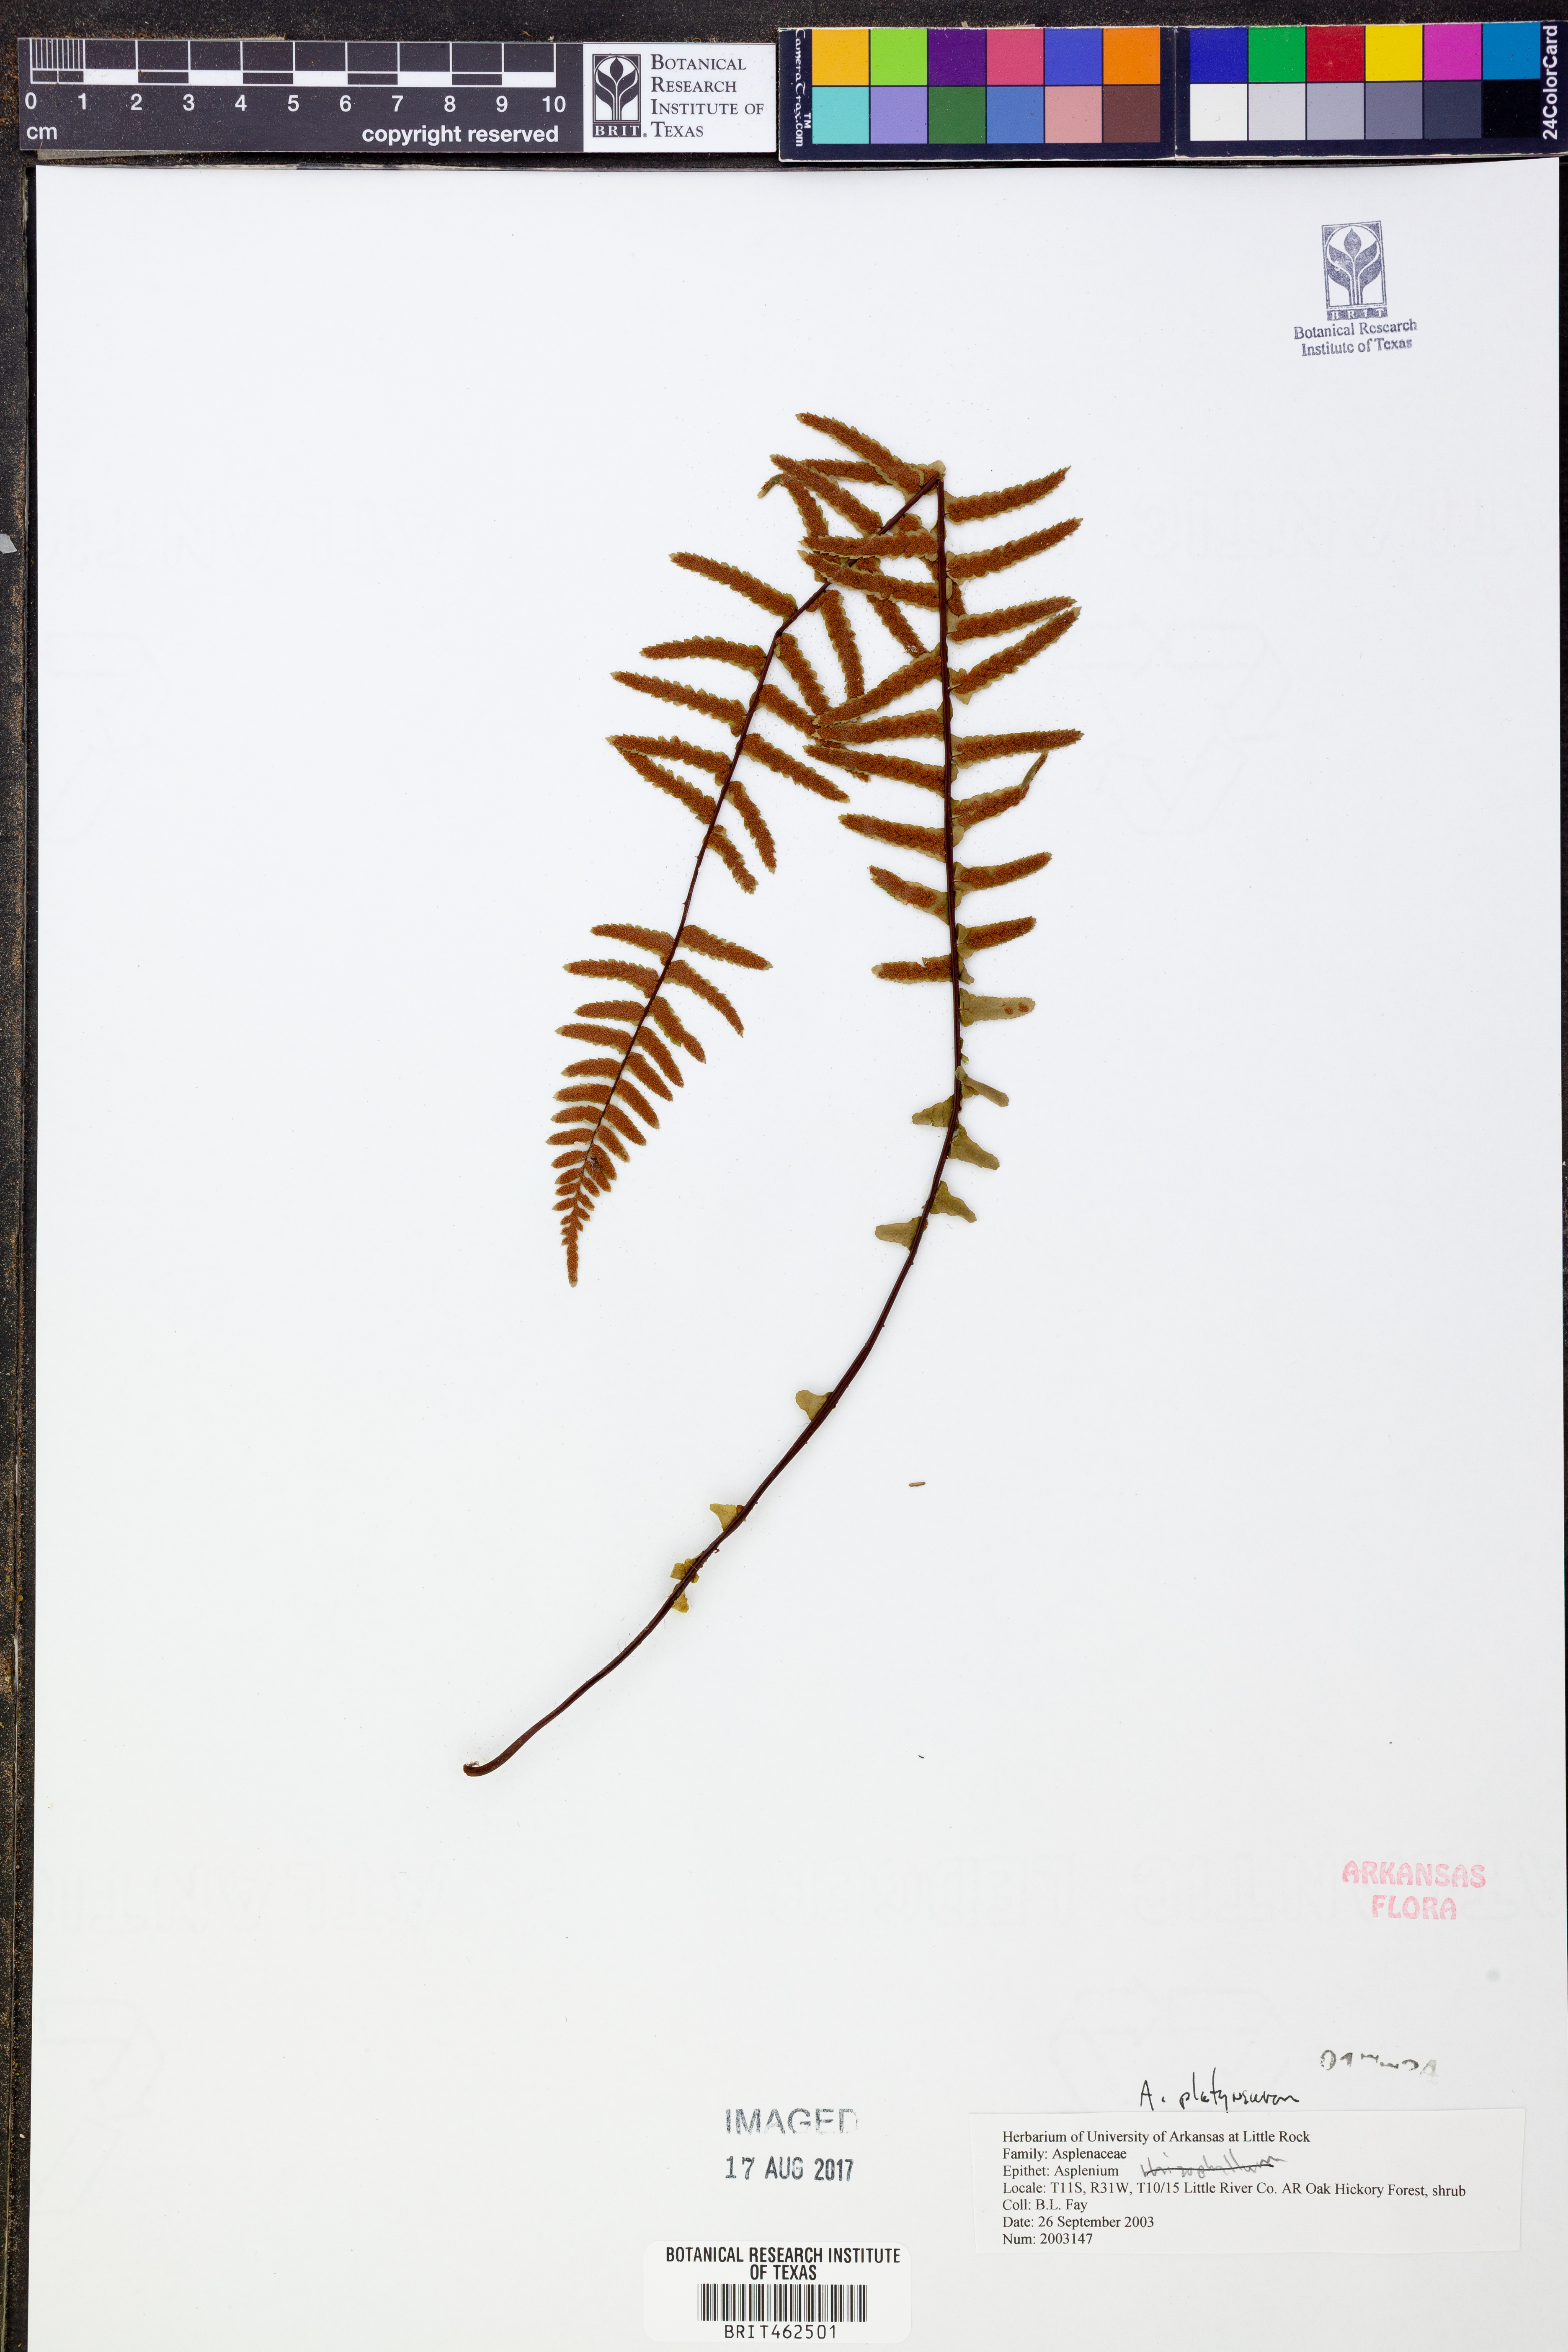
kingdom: Plantae
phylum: Tracheophyta
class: Polypodiopsida
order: Polypodiales
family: Aspleniaceae
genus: Asplenium
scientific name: Asplenium platyneuron
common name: Ebony spleenwort
